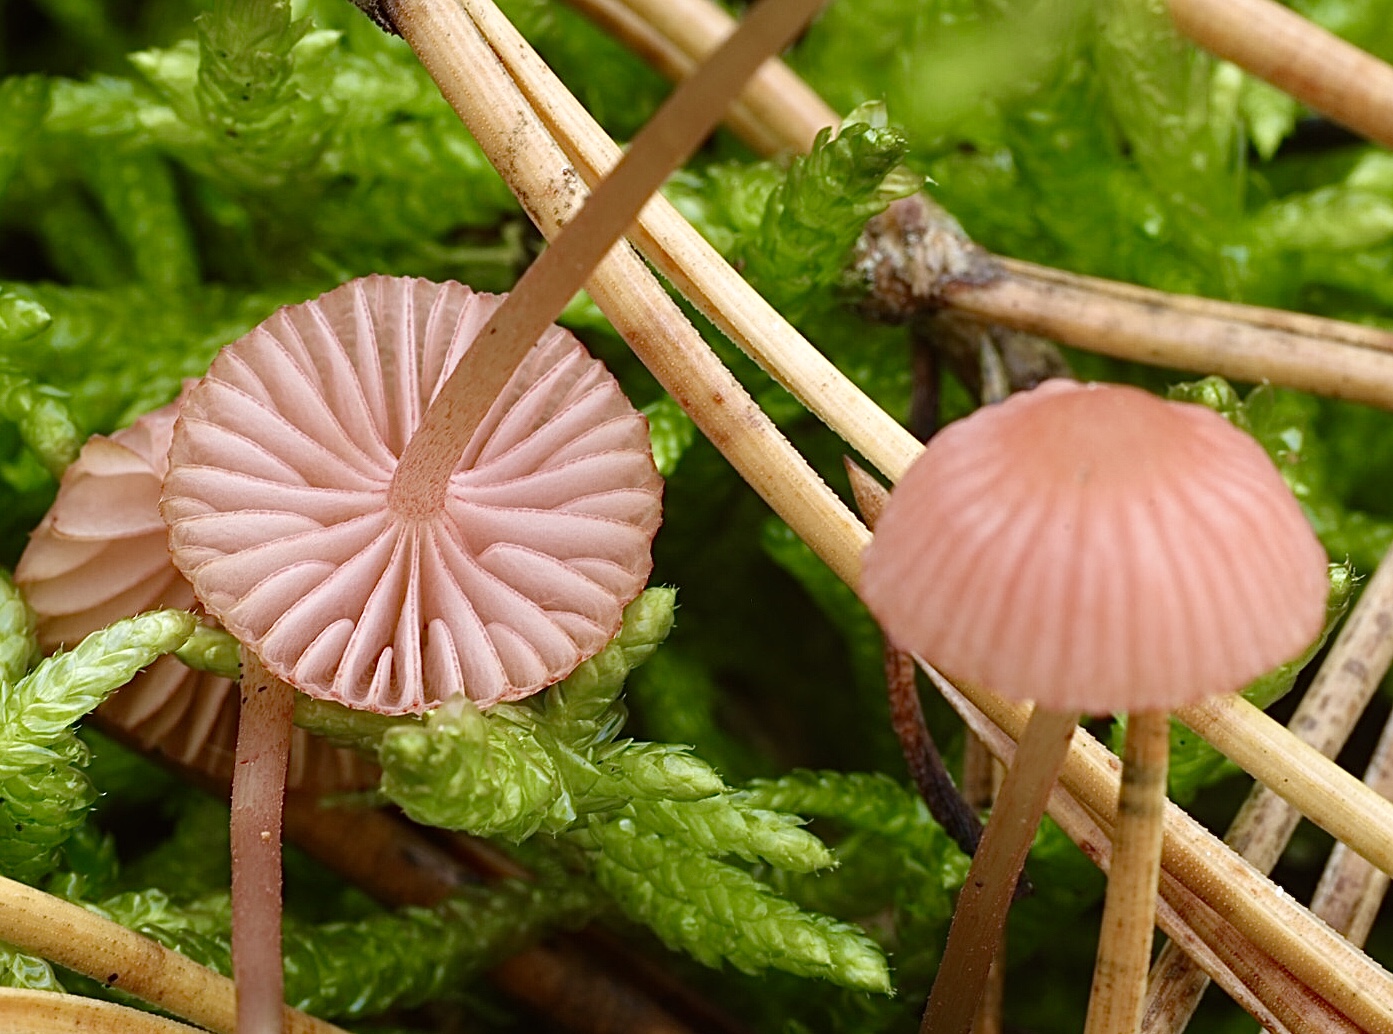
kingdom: Fungi
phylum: Basidiomycota
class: Agaricomycetes
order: Agaricales
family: Mycenaceae
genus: Mycena
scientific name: Mycena rosella
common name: rosenrød huesvamp
